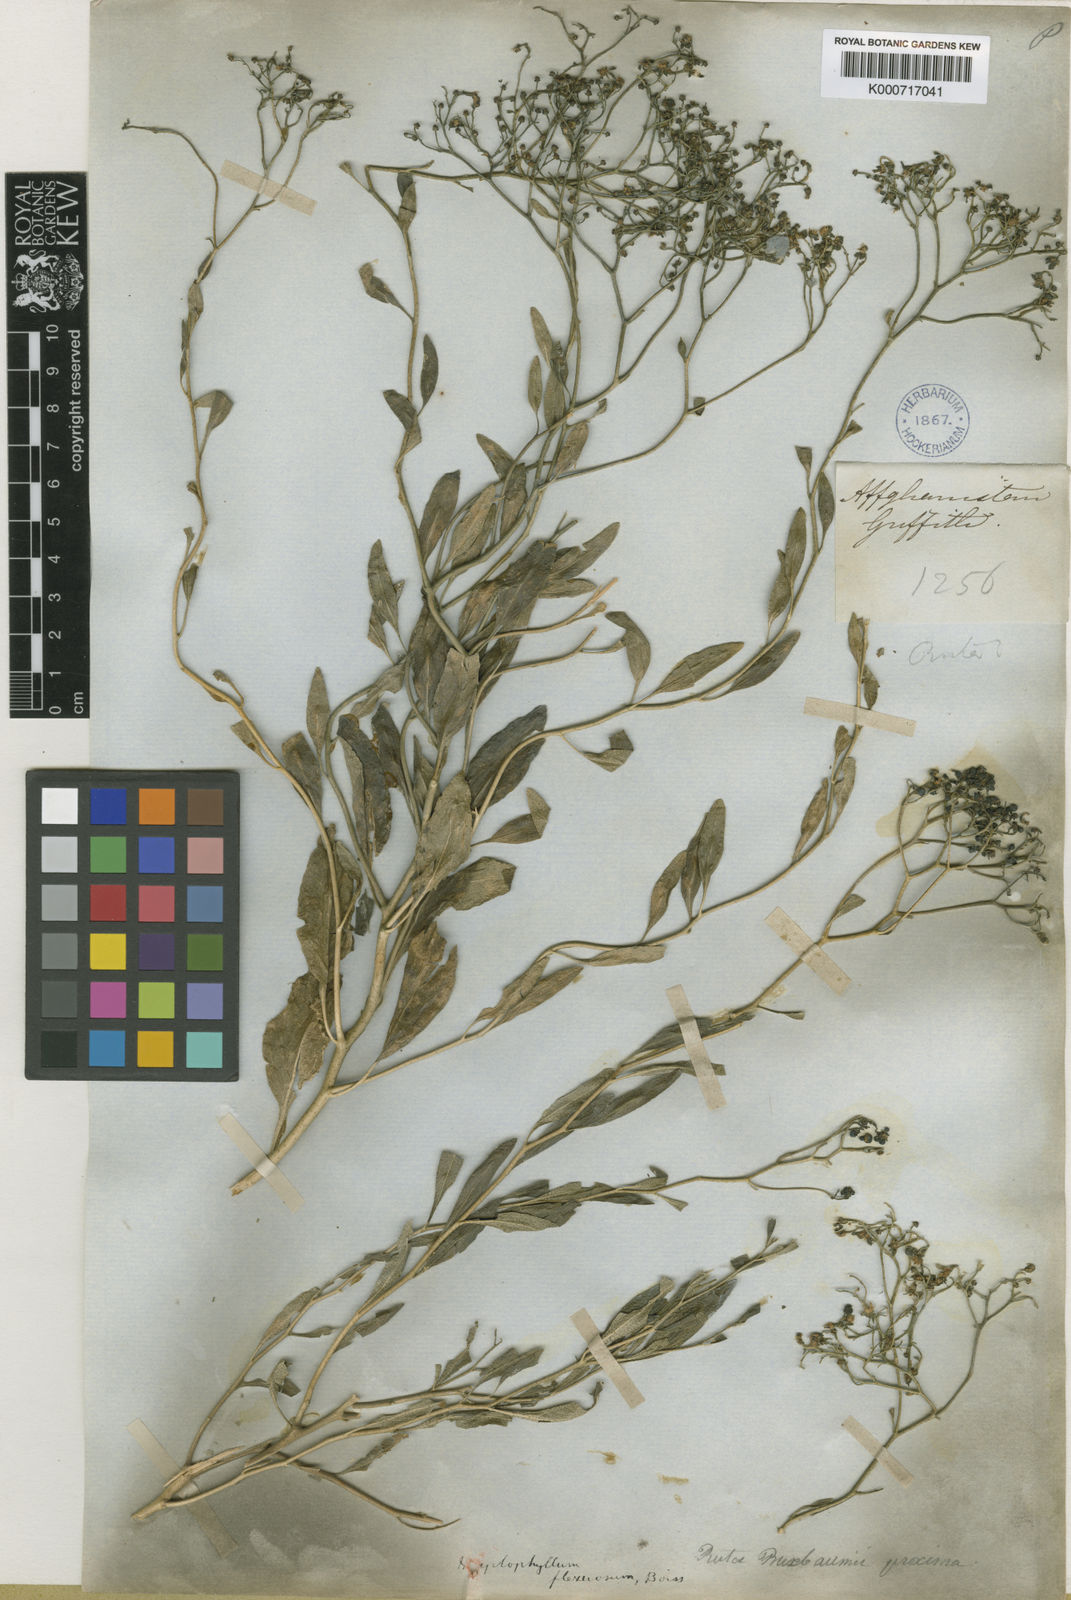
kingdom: Plantae
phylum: Tracheophyta
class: Magnoliopsida
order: Sapindales
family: Rutaceae
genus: Haplophyllum
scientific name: Haplophyllum acutifolium
